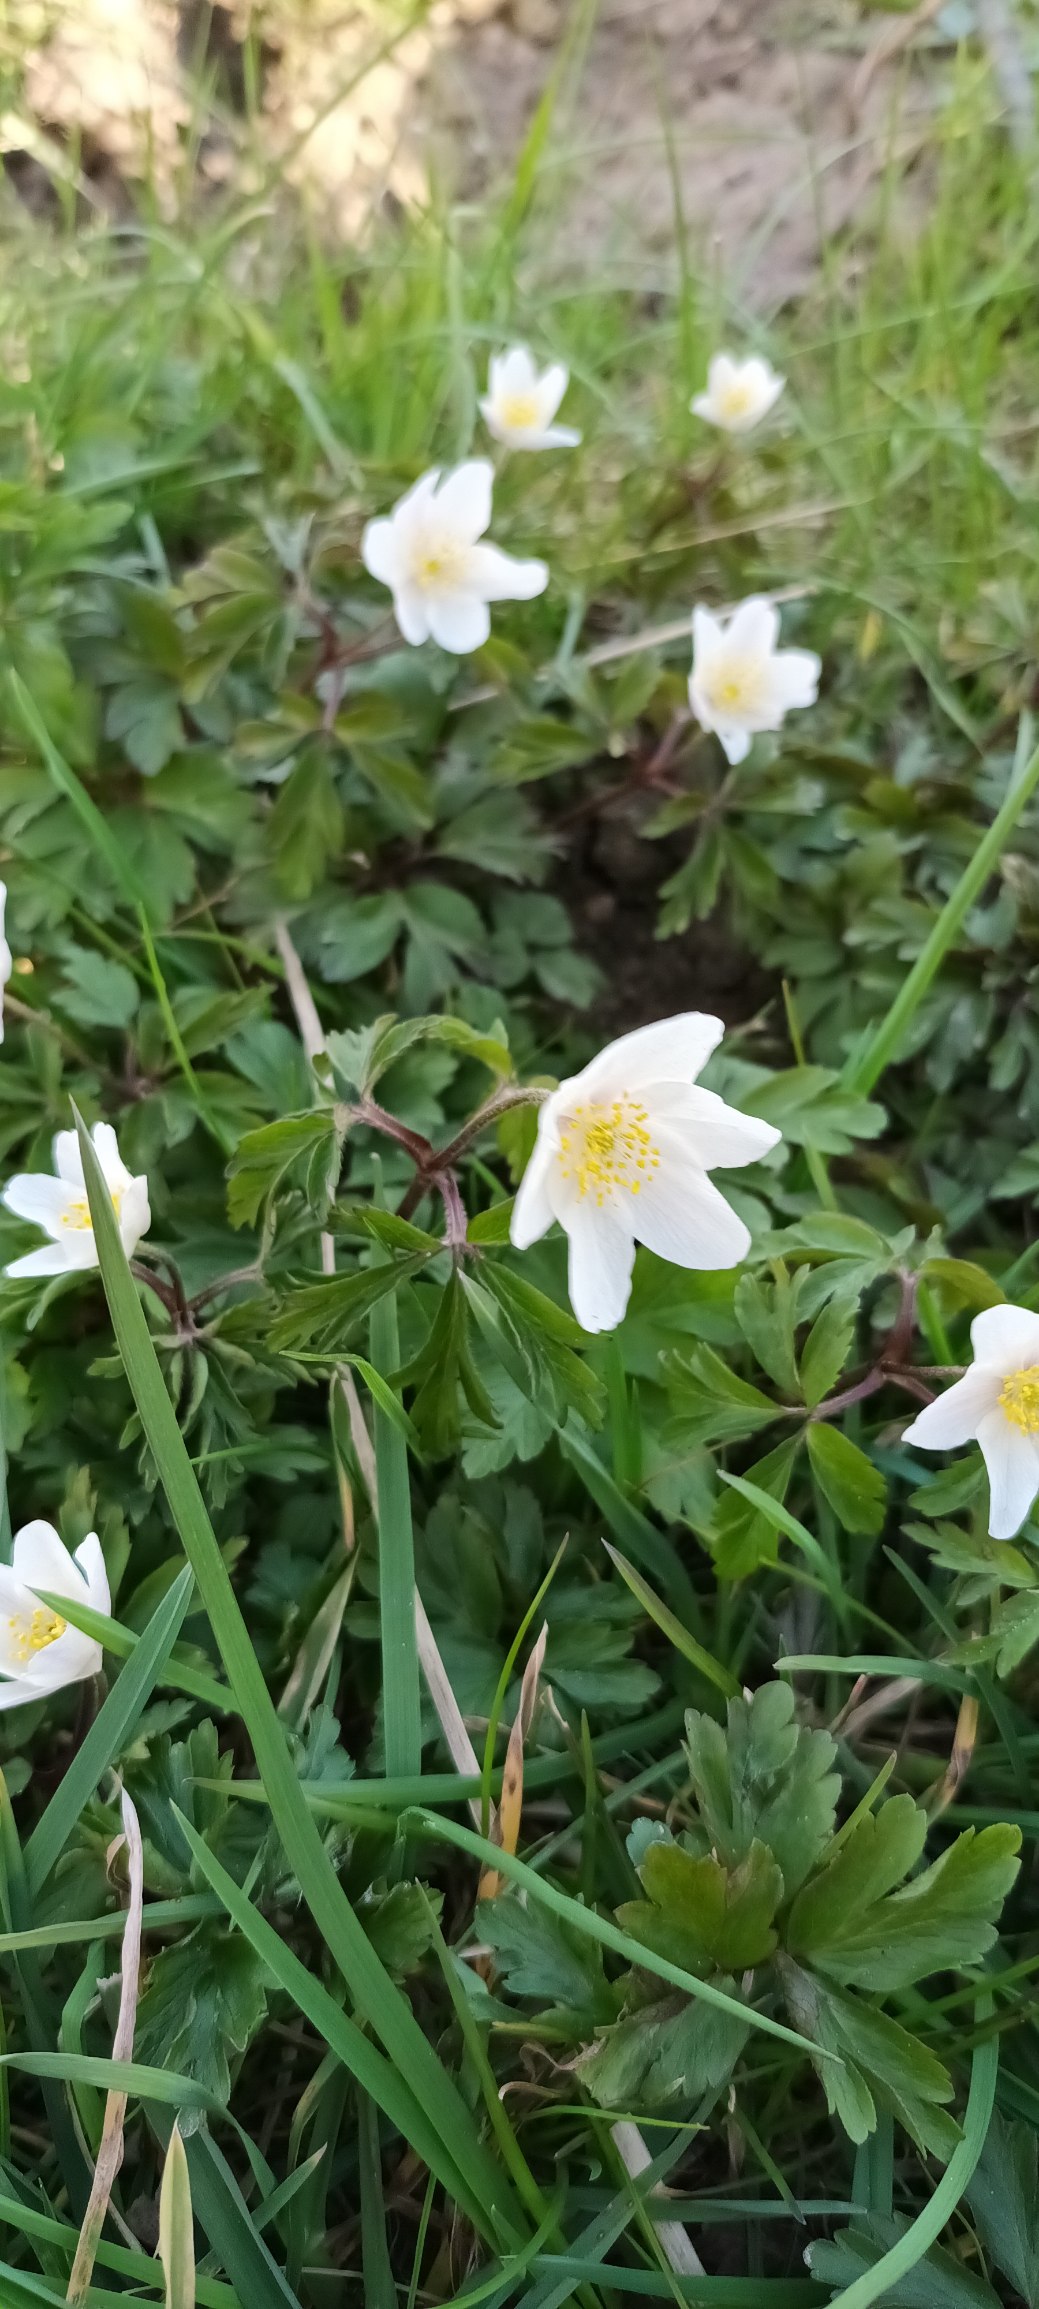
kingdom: Plantae
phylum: Tracheophyta
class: Magnoliopsida
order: Ranunculales
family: Ranunculaceae
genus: Anemone
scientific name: Anemone nemorosa
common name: Hvid anemone
